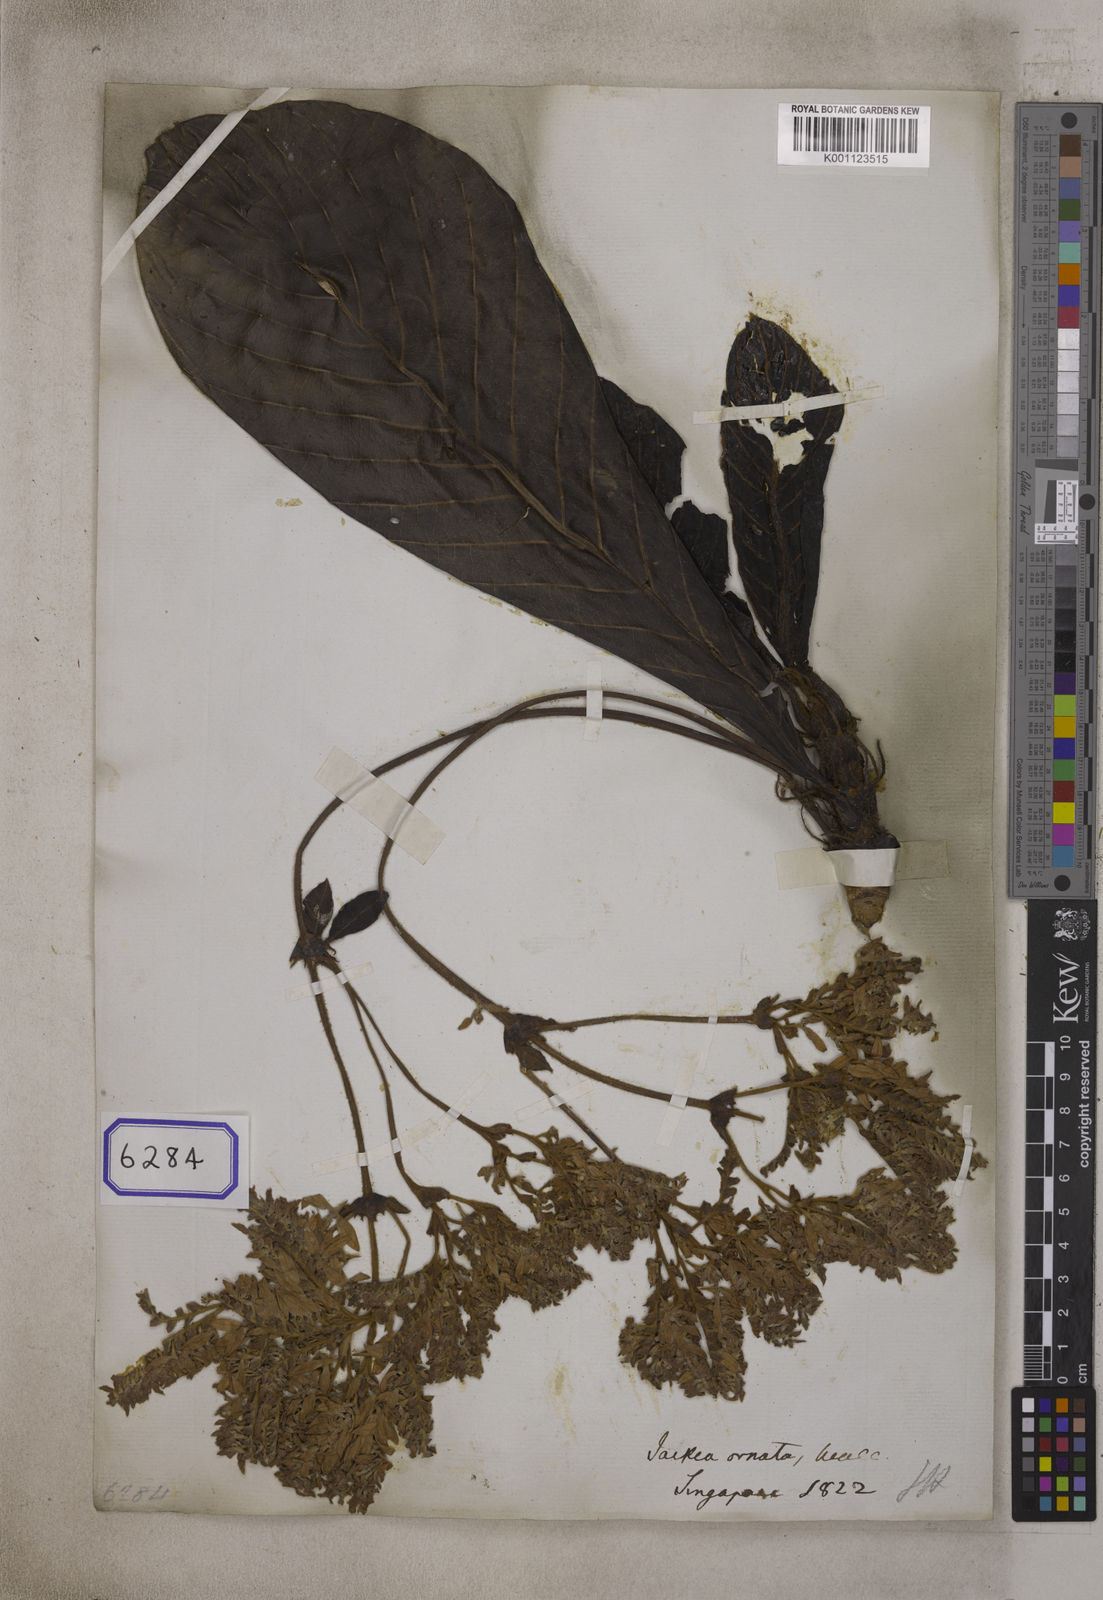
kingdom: Plantae
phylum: Tracheophyta
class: Magnoliopsida
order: Fabales
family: Polygalaceae
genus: Jackia
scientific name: Jackia
